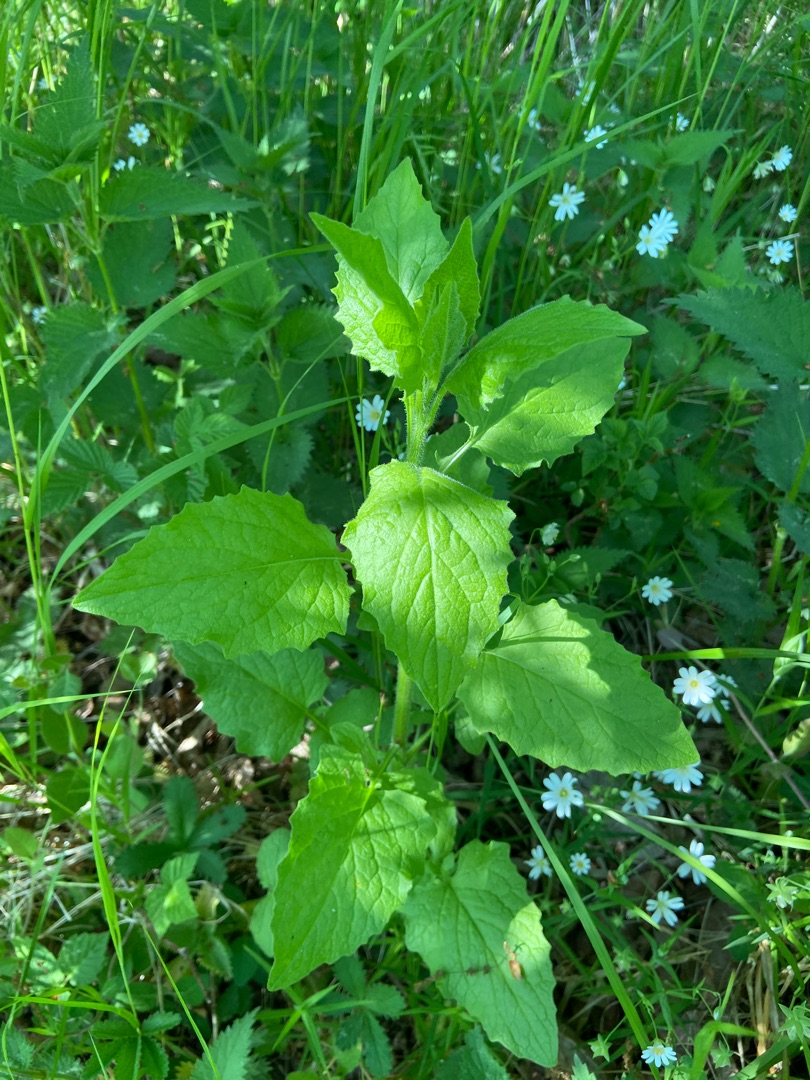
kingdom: Plantae
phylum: Tracheophyta
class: Magnoliopsida
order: Asterales
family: Asteraceae
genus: Lapsana
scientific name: Lapsana communis
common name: Haremad
